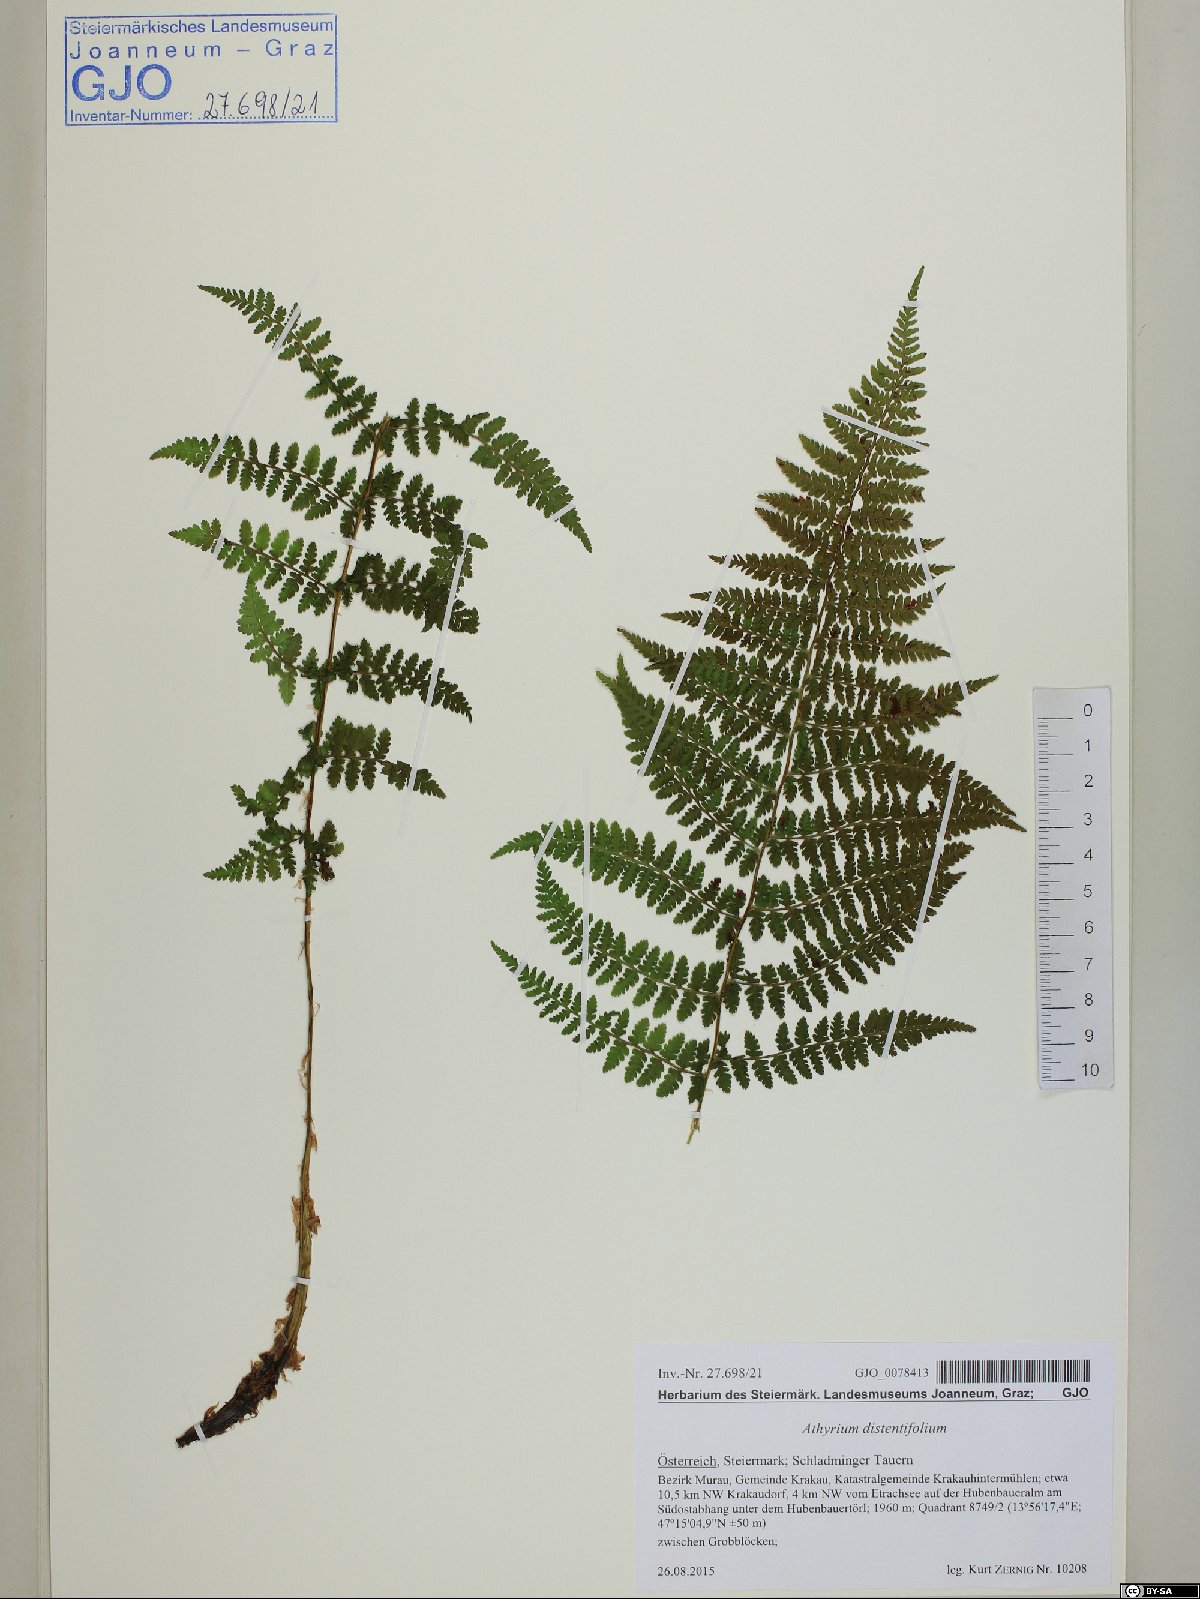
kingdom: Plantae
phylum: Tracheophyta
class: Polypodiopsida
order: Polypodiales
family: Athyriaceae
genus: Pseudathyrium
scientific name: Pseudathyrium alpestre
